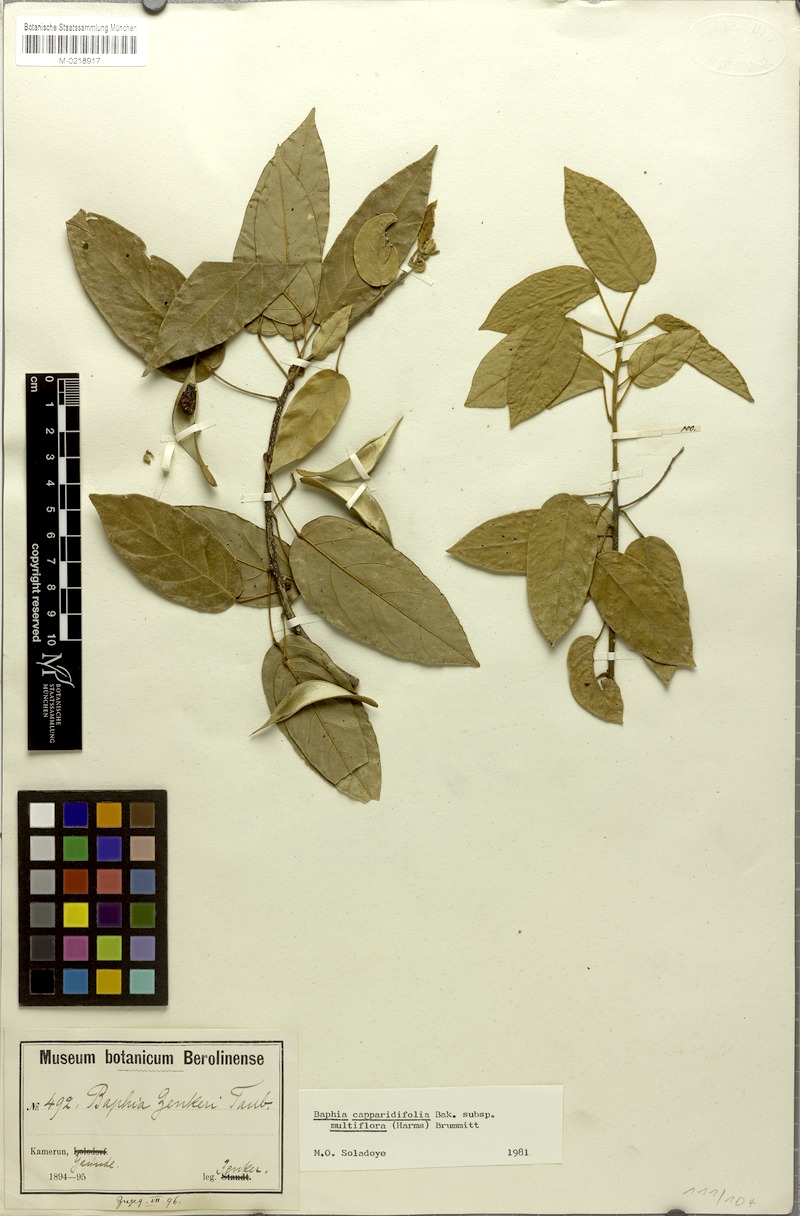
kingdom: Plantae
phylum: Tracheophyta
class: Magnoliopsida
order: Fabales
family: Fabaceae
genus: Baphia
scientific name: Baphia multiflora
